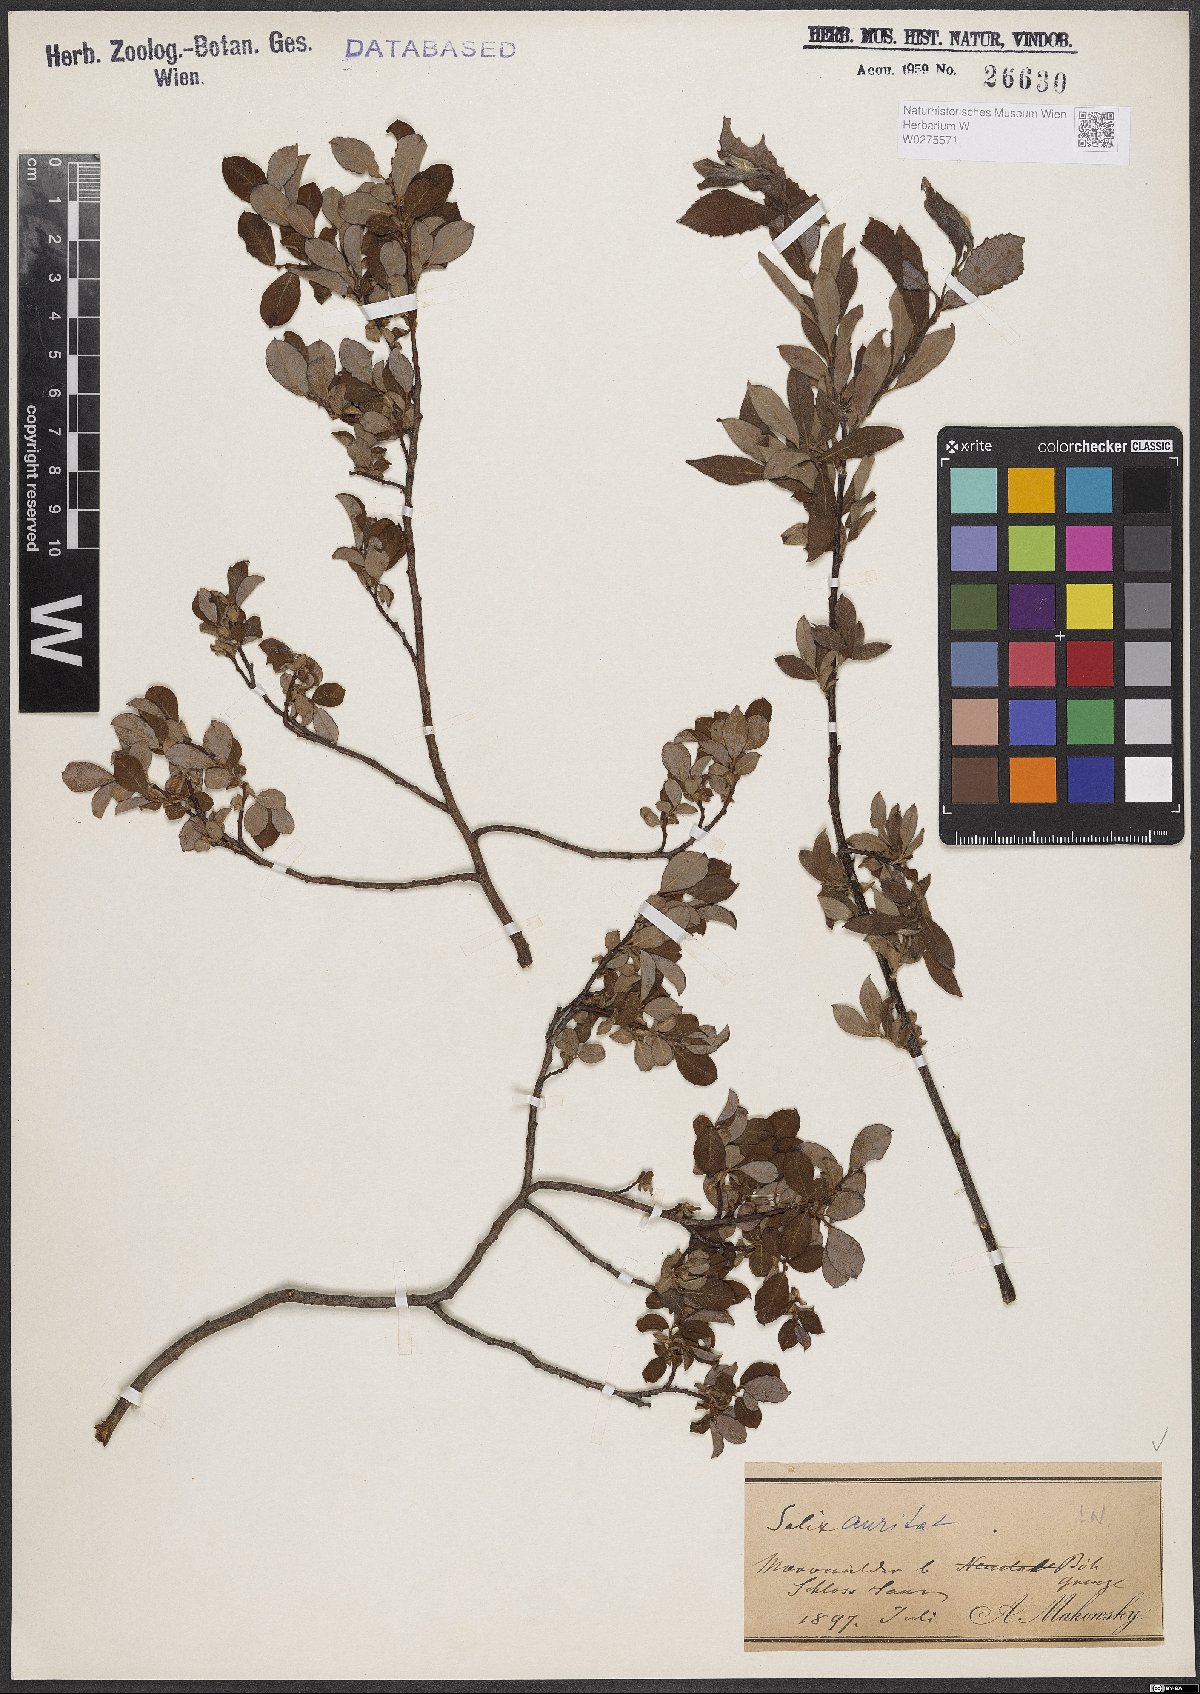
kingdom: Plantae
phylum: Tracheophyta
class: Magnoliopsida
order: Malpighiales
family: Salicaceae
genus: Salix
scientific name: Salix aurita
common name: Eared willow
